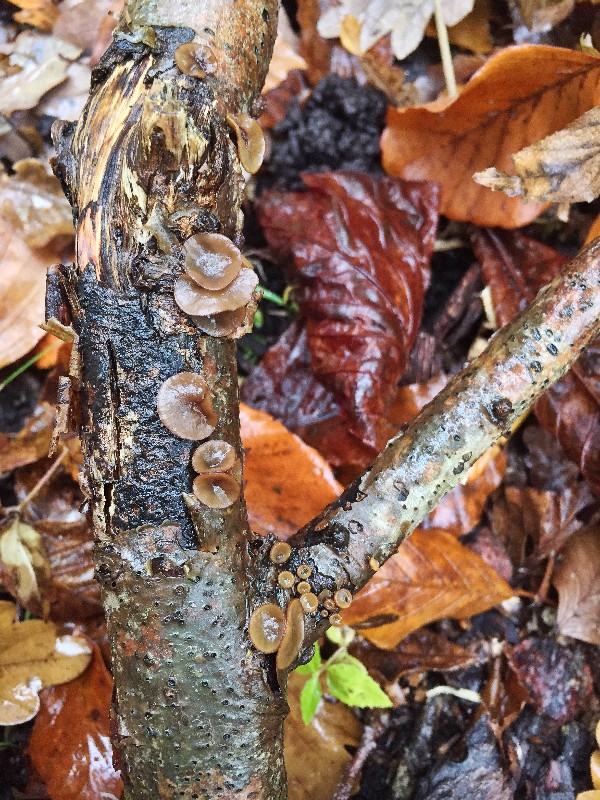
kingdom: Fungi
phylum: Ascomycota
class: Leotiomycetes
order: Helotiales
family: Rutstroemiaceae
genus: Rutstroemia
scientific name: Rutstroemia firma
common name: gren-brunskive
